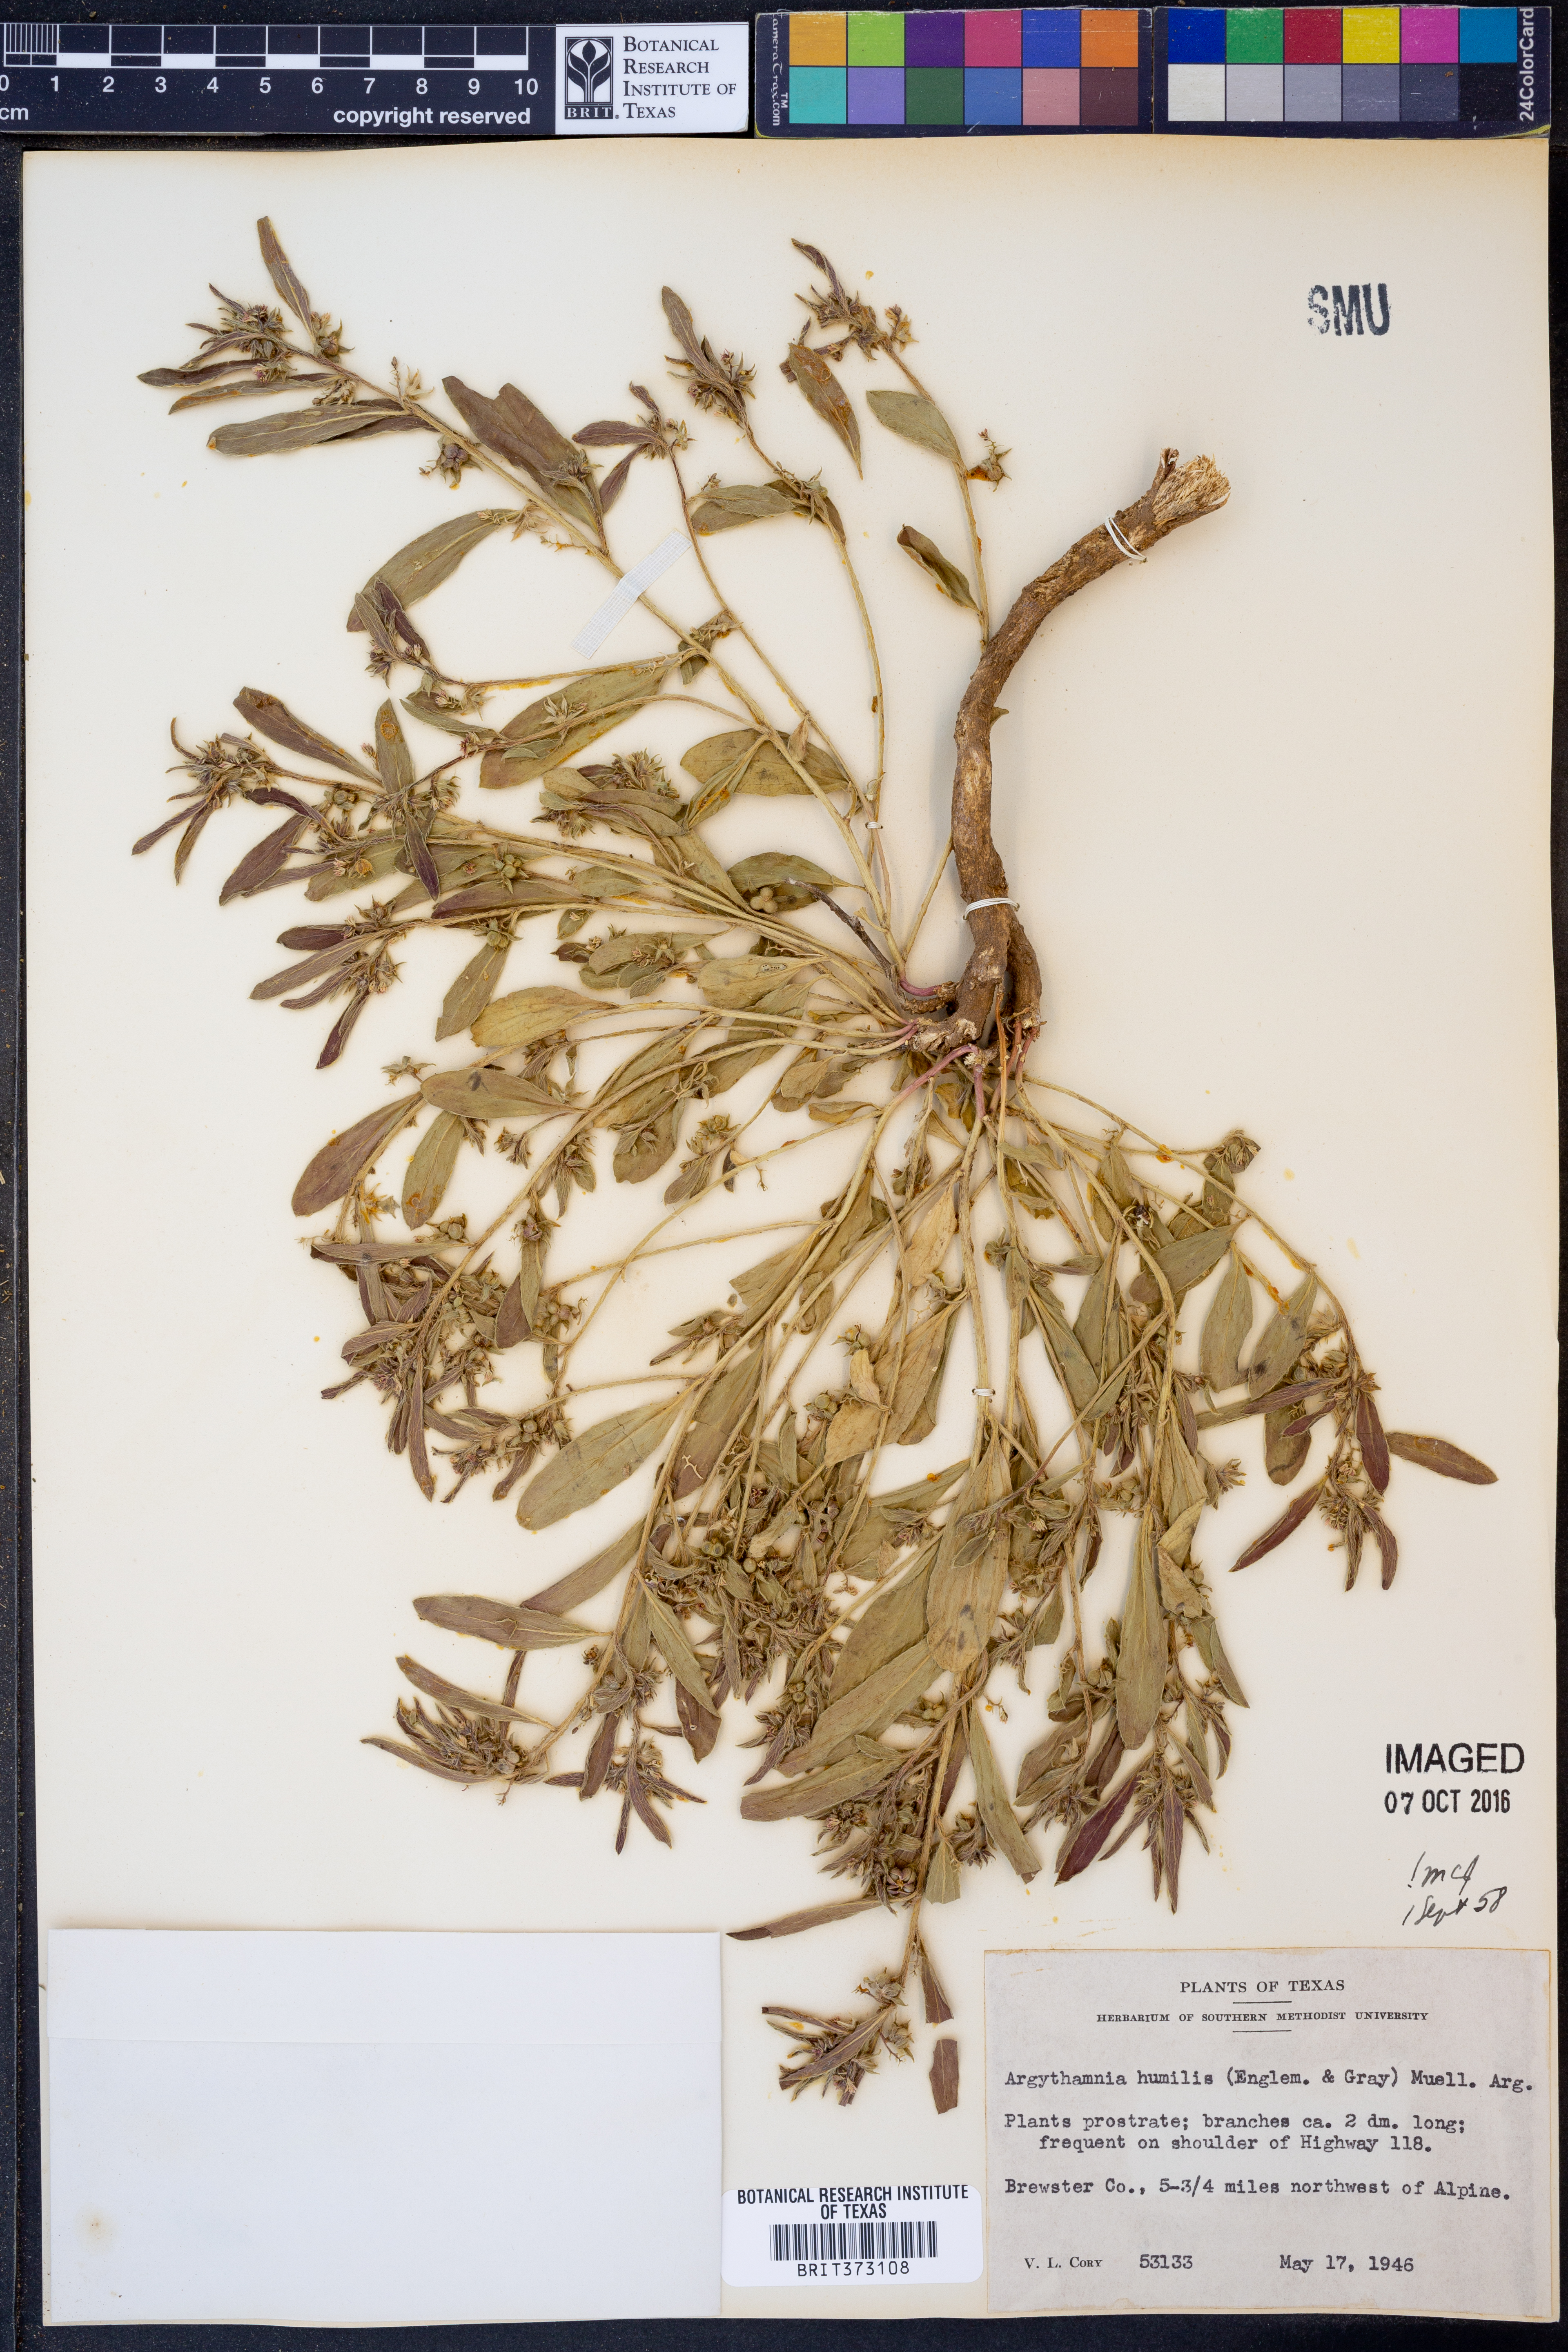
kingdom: Plantae
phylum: Tracheophyta
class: Magnoliopsida
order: Malpighiales
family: Euphorbiaceae
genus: Ditaxis
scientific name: Ditaxis humilis
